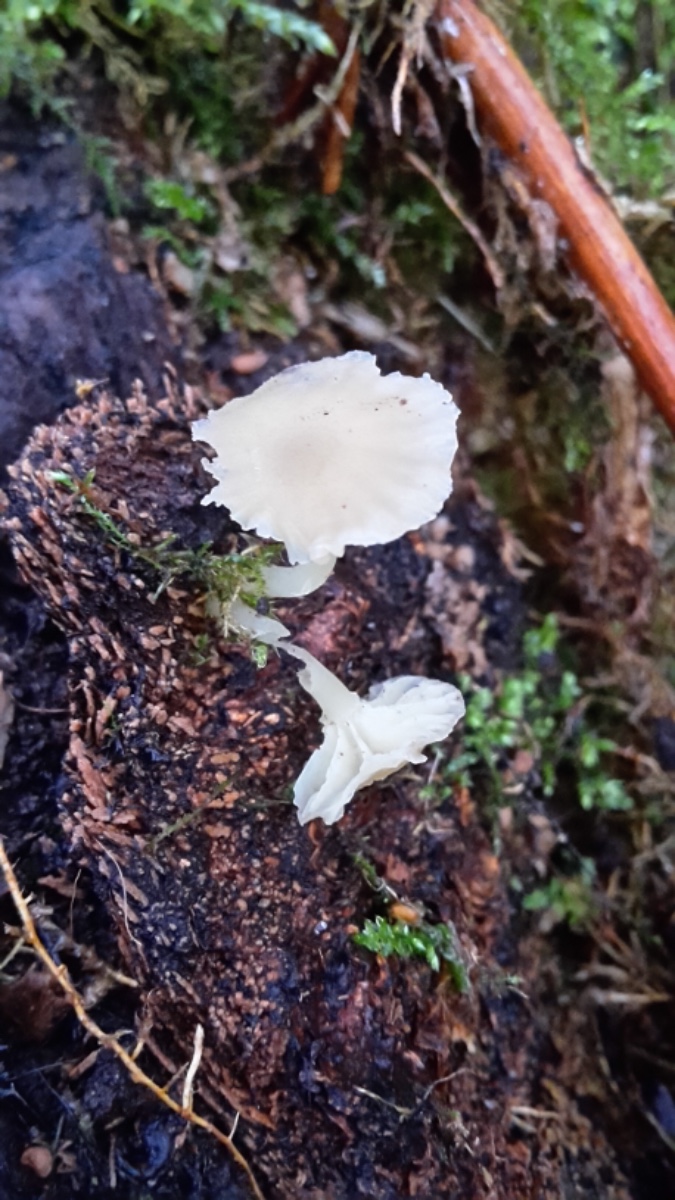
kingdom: Fungi
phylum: Basidiomycota
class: Agaricomycetes
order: Agaricales
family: Hygrophoraceae
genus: Chrysomphalina
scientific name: Chrysomphalina grossula
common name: stød-gyldenblad
